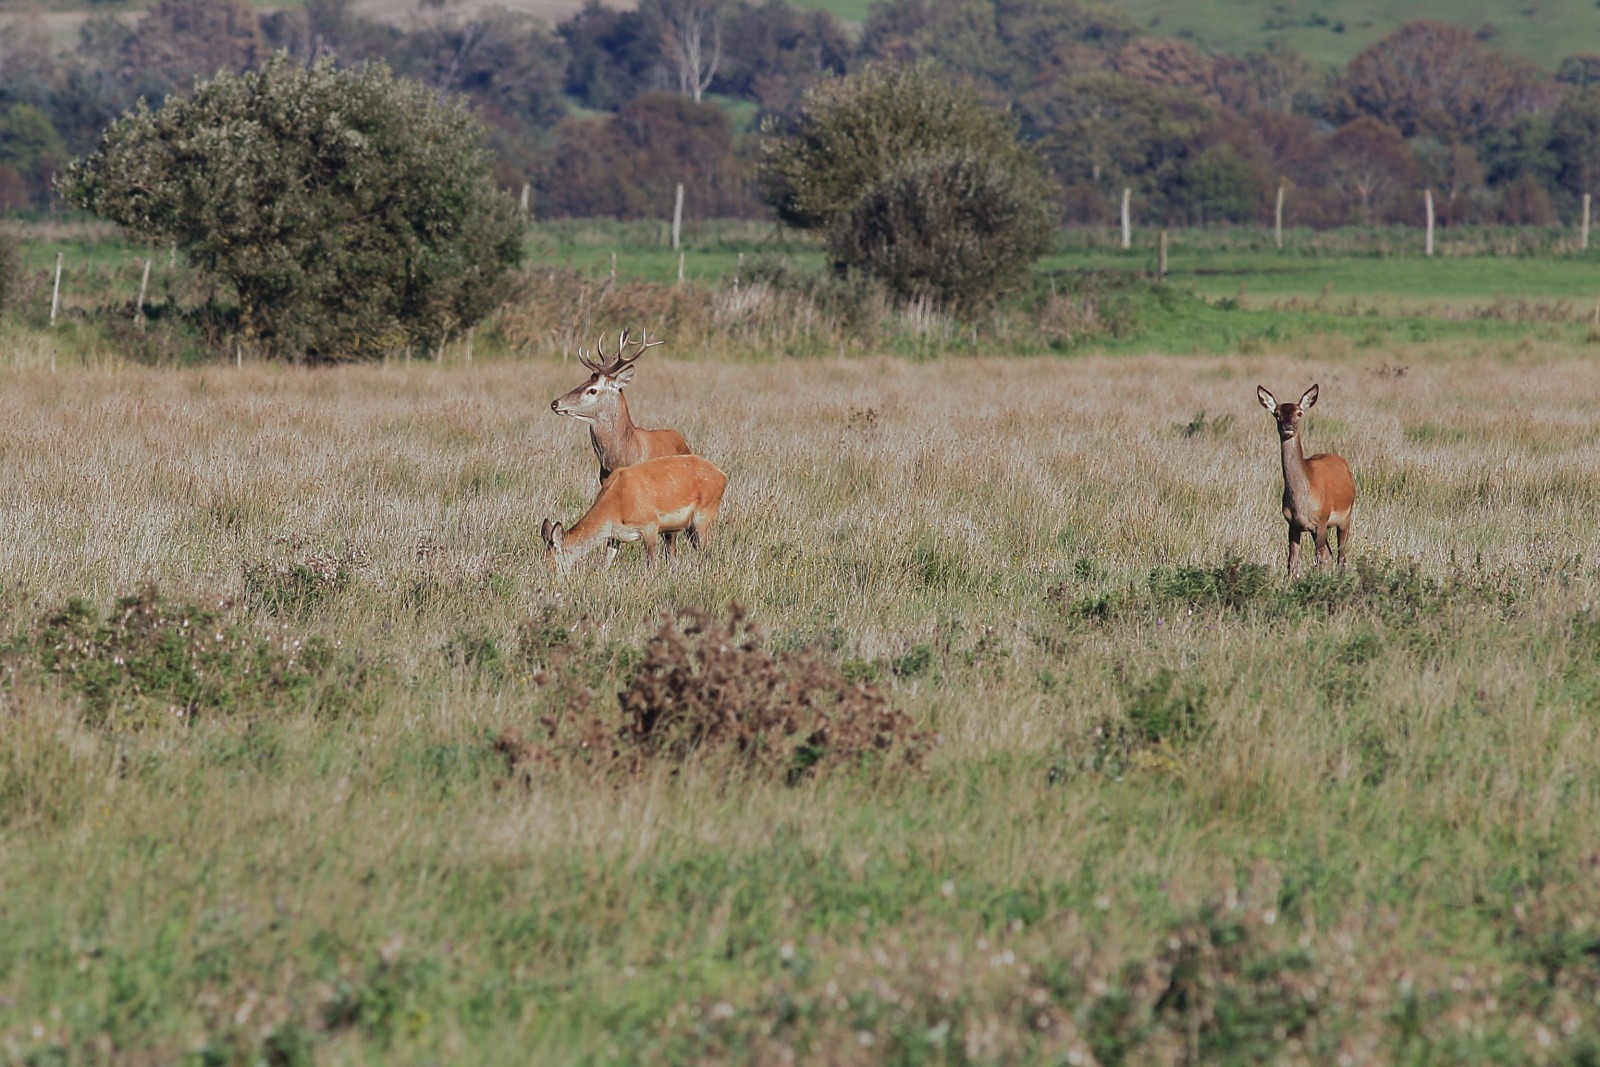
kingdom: Animalia
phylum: Chordata
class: Mammalia
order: Artiodactyla
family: Cervidae
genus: Cervus
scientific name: Cervus elaphus
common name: Krondyr
